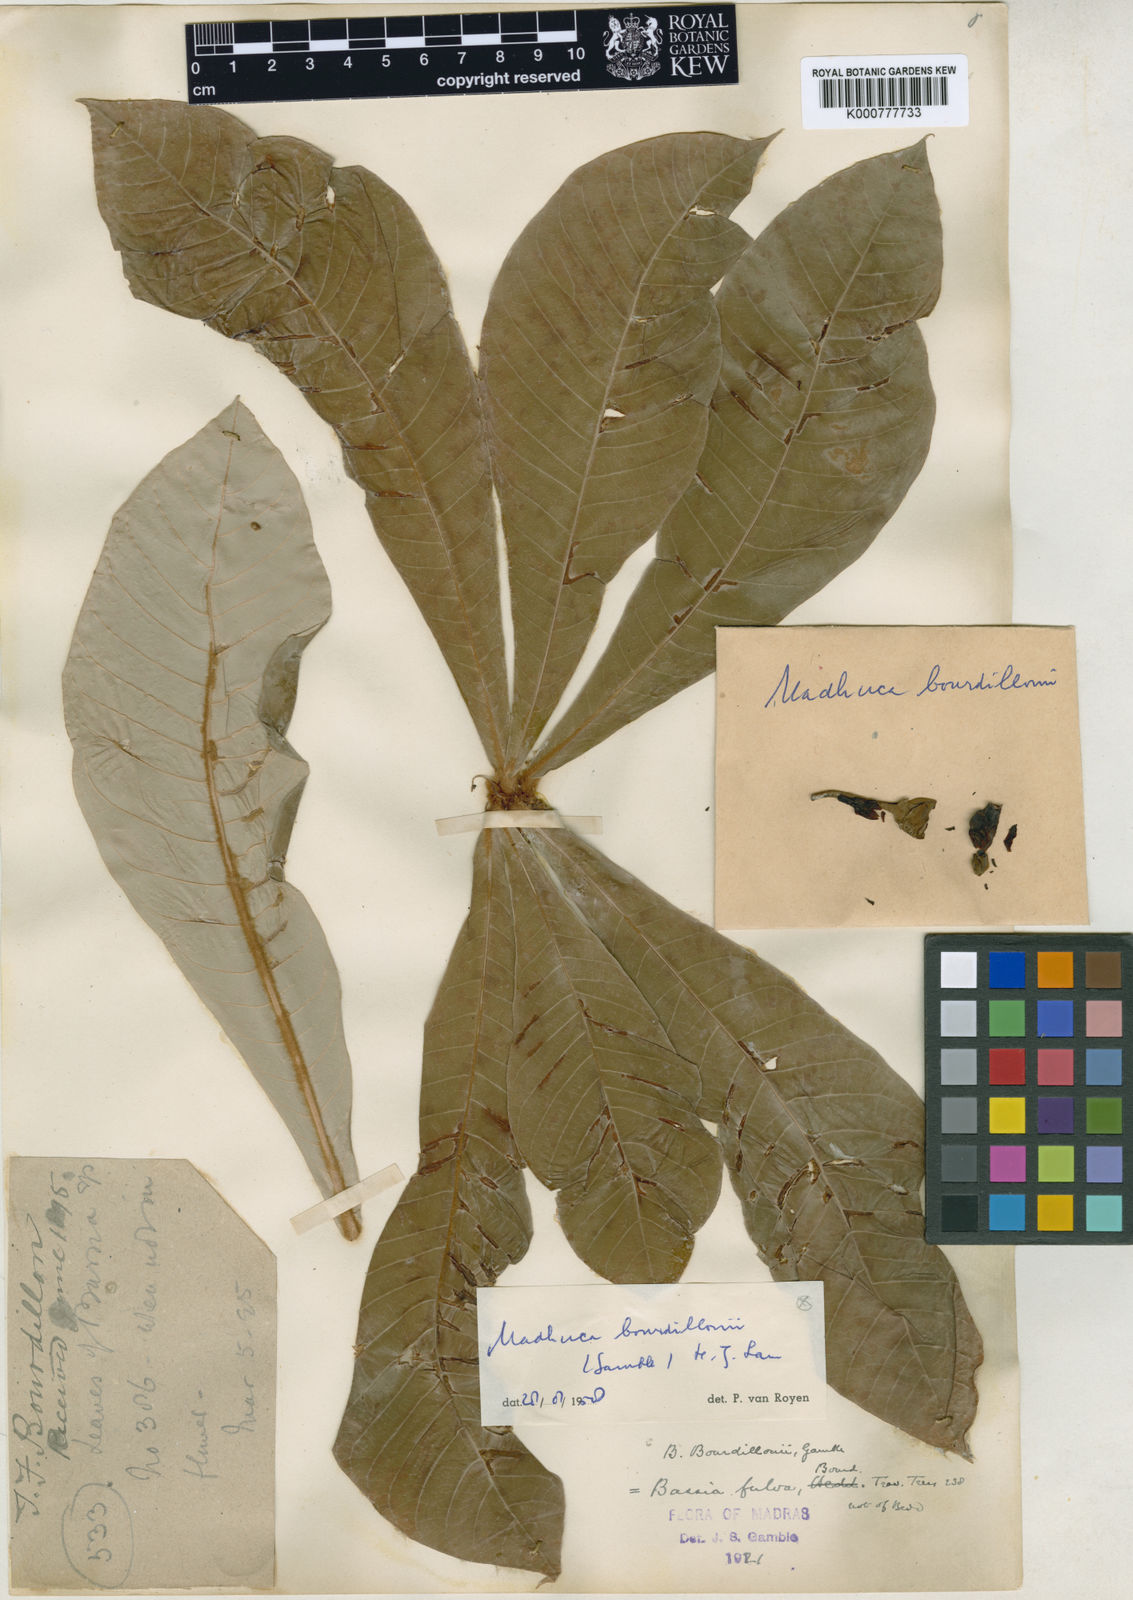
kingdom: Plantae
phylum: Tracheophyta
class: Magnoliopsida
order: Ericales
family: Sapotaceae
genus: Madhuca
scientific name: Madhuca bourdillonii
